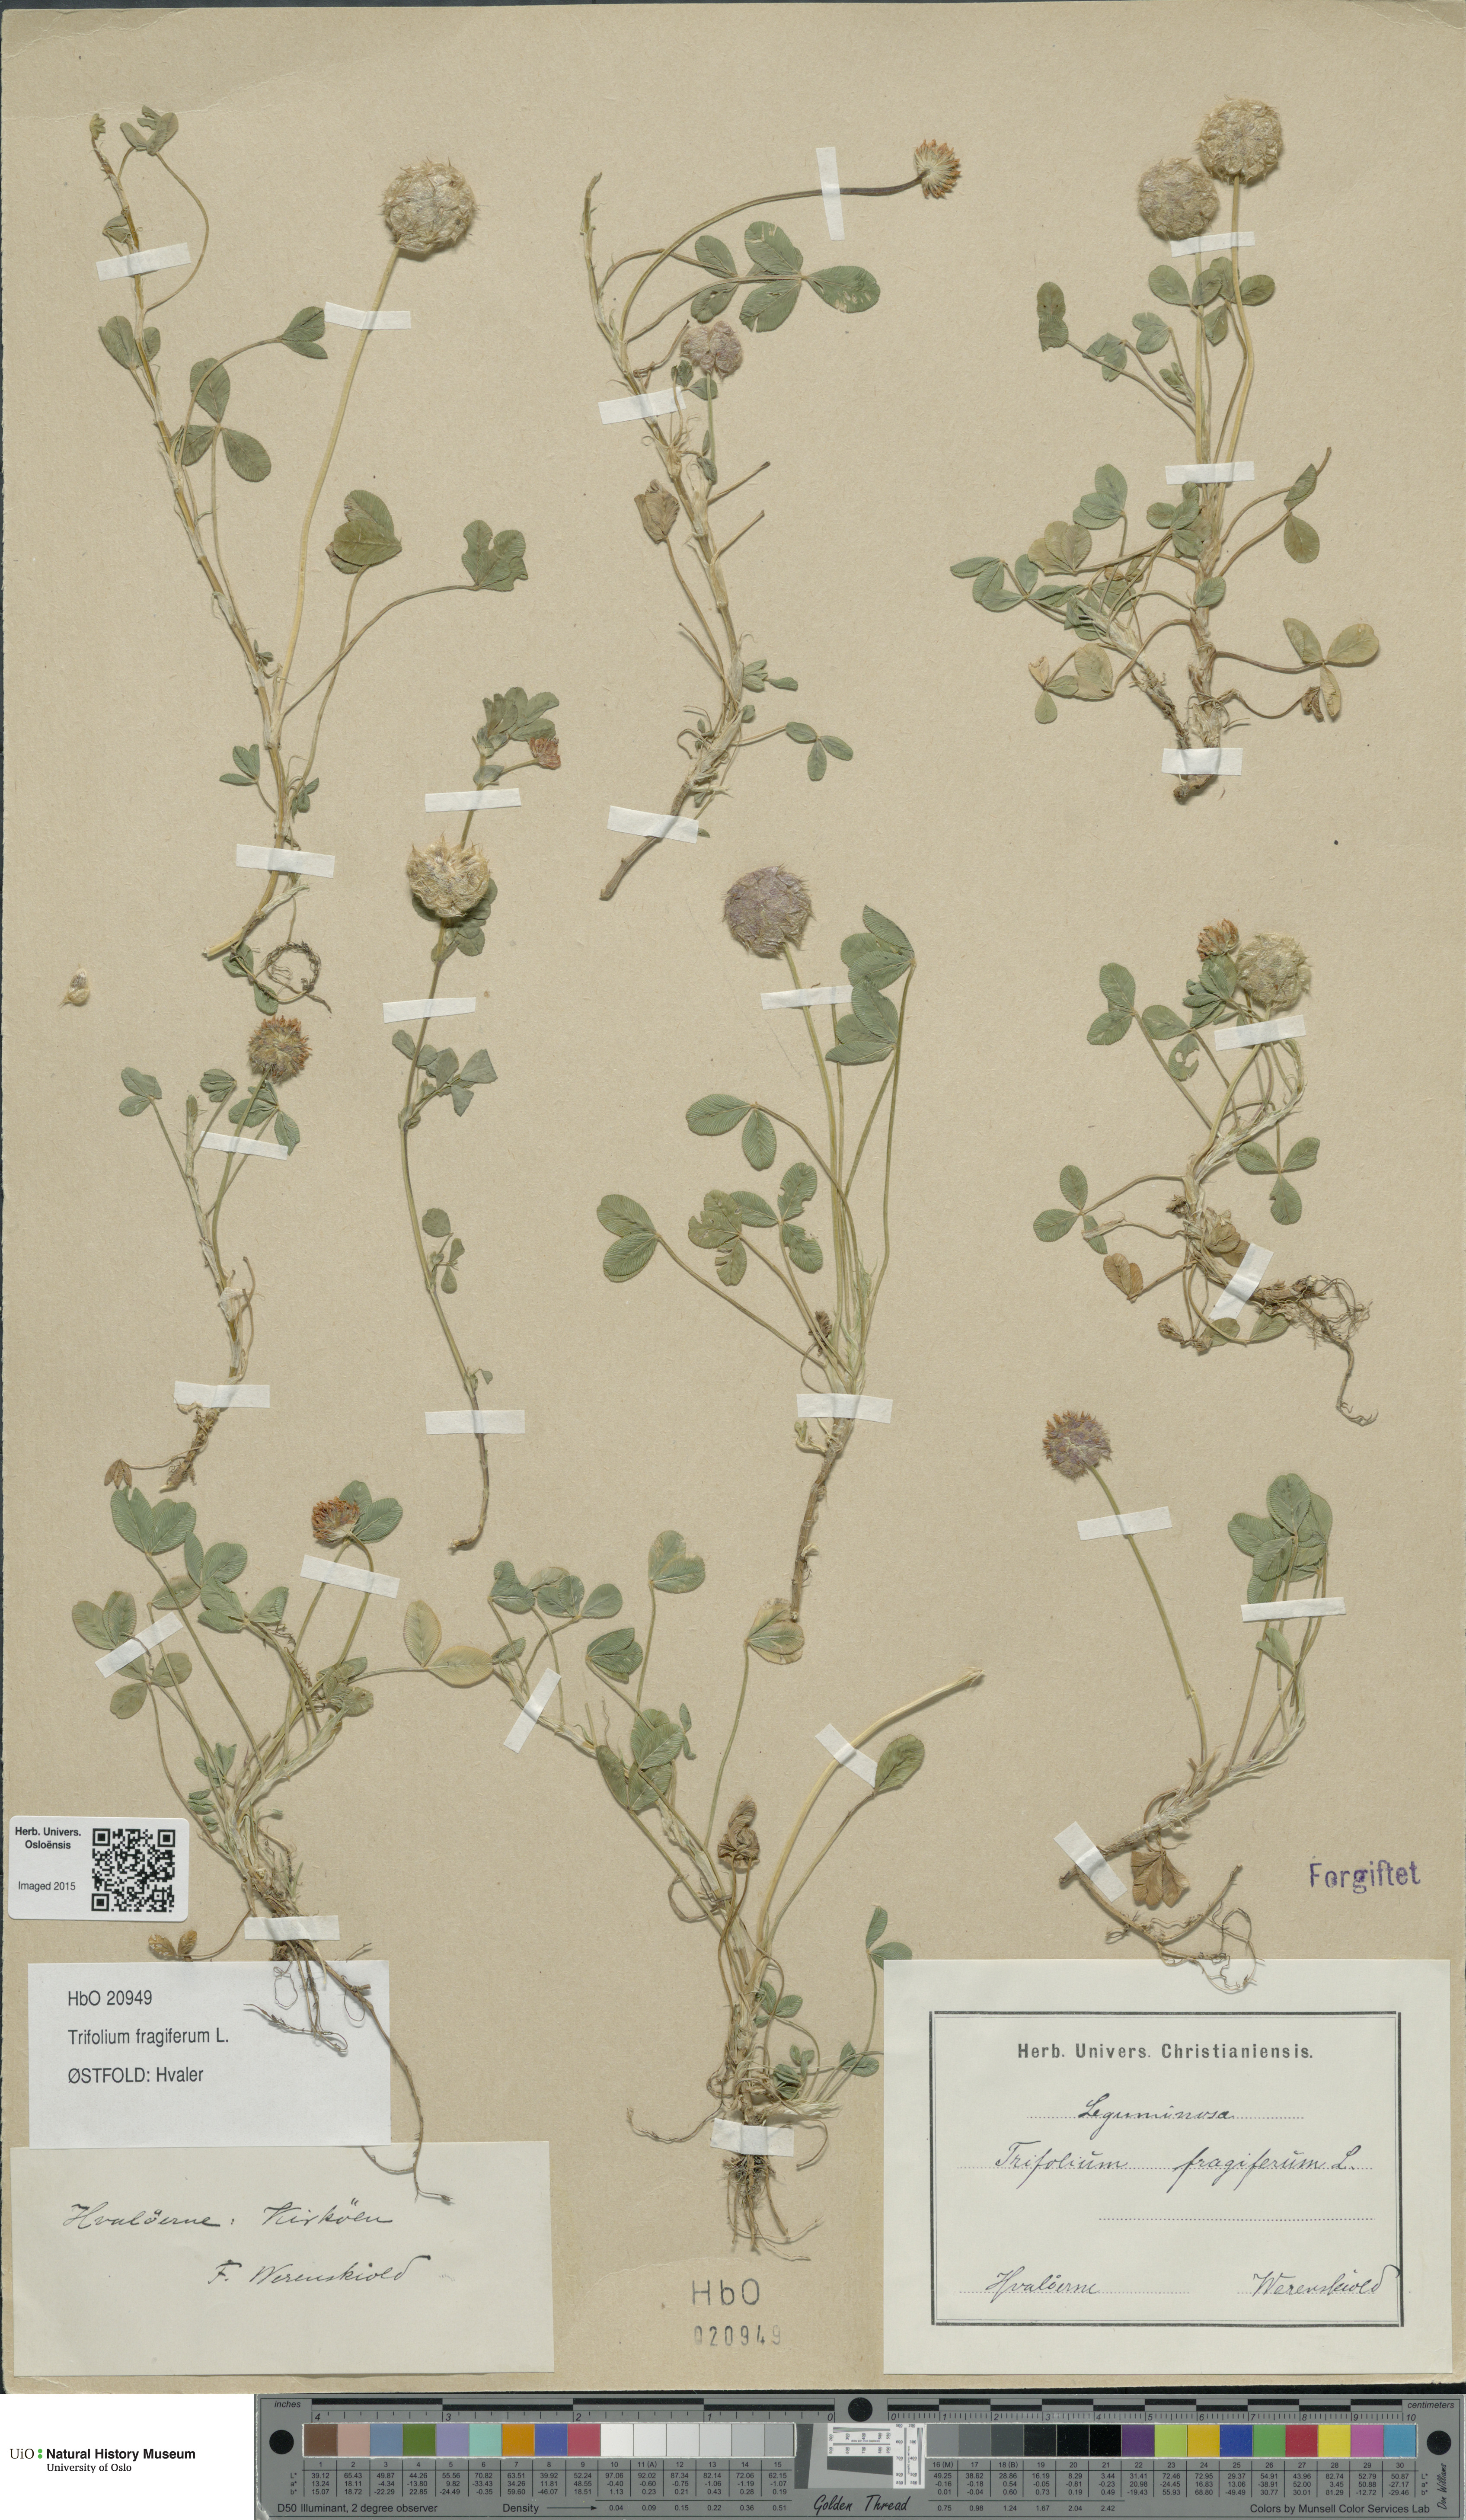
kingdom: Plantae
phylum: Tracheophyta
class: Magnoliopsida
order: Fabales
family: Fabaceae
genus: Trifolium
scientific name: Trifolium fragiferum
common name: Strawberry clover
